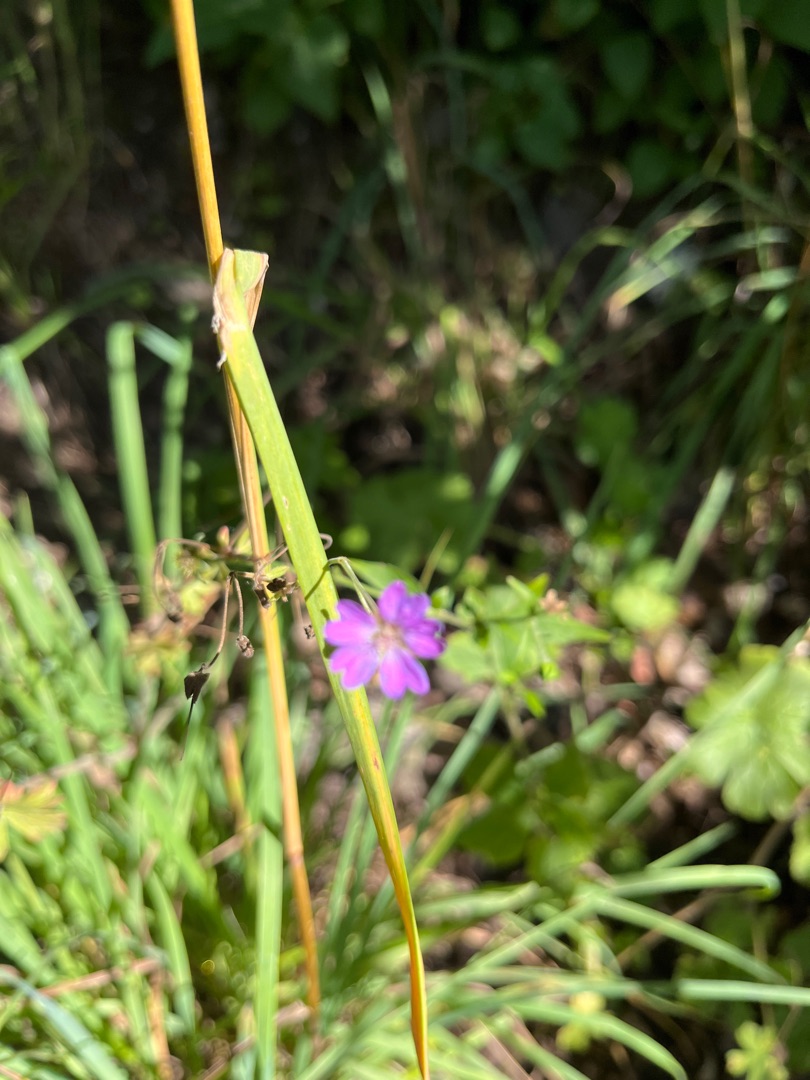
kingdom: Plantae
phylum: Tracheophyta
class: Magnoliopsida
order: Geraniales
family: Geraniaceae
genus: Geranium
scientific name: Geranium pyrenaicum
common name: Pyrenæisk storkenæb
